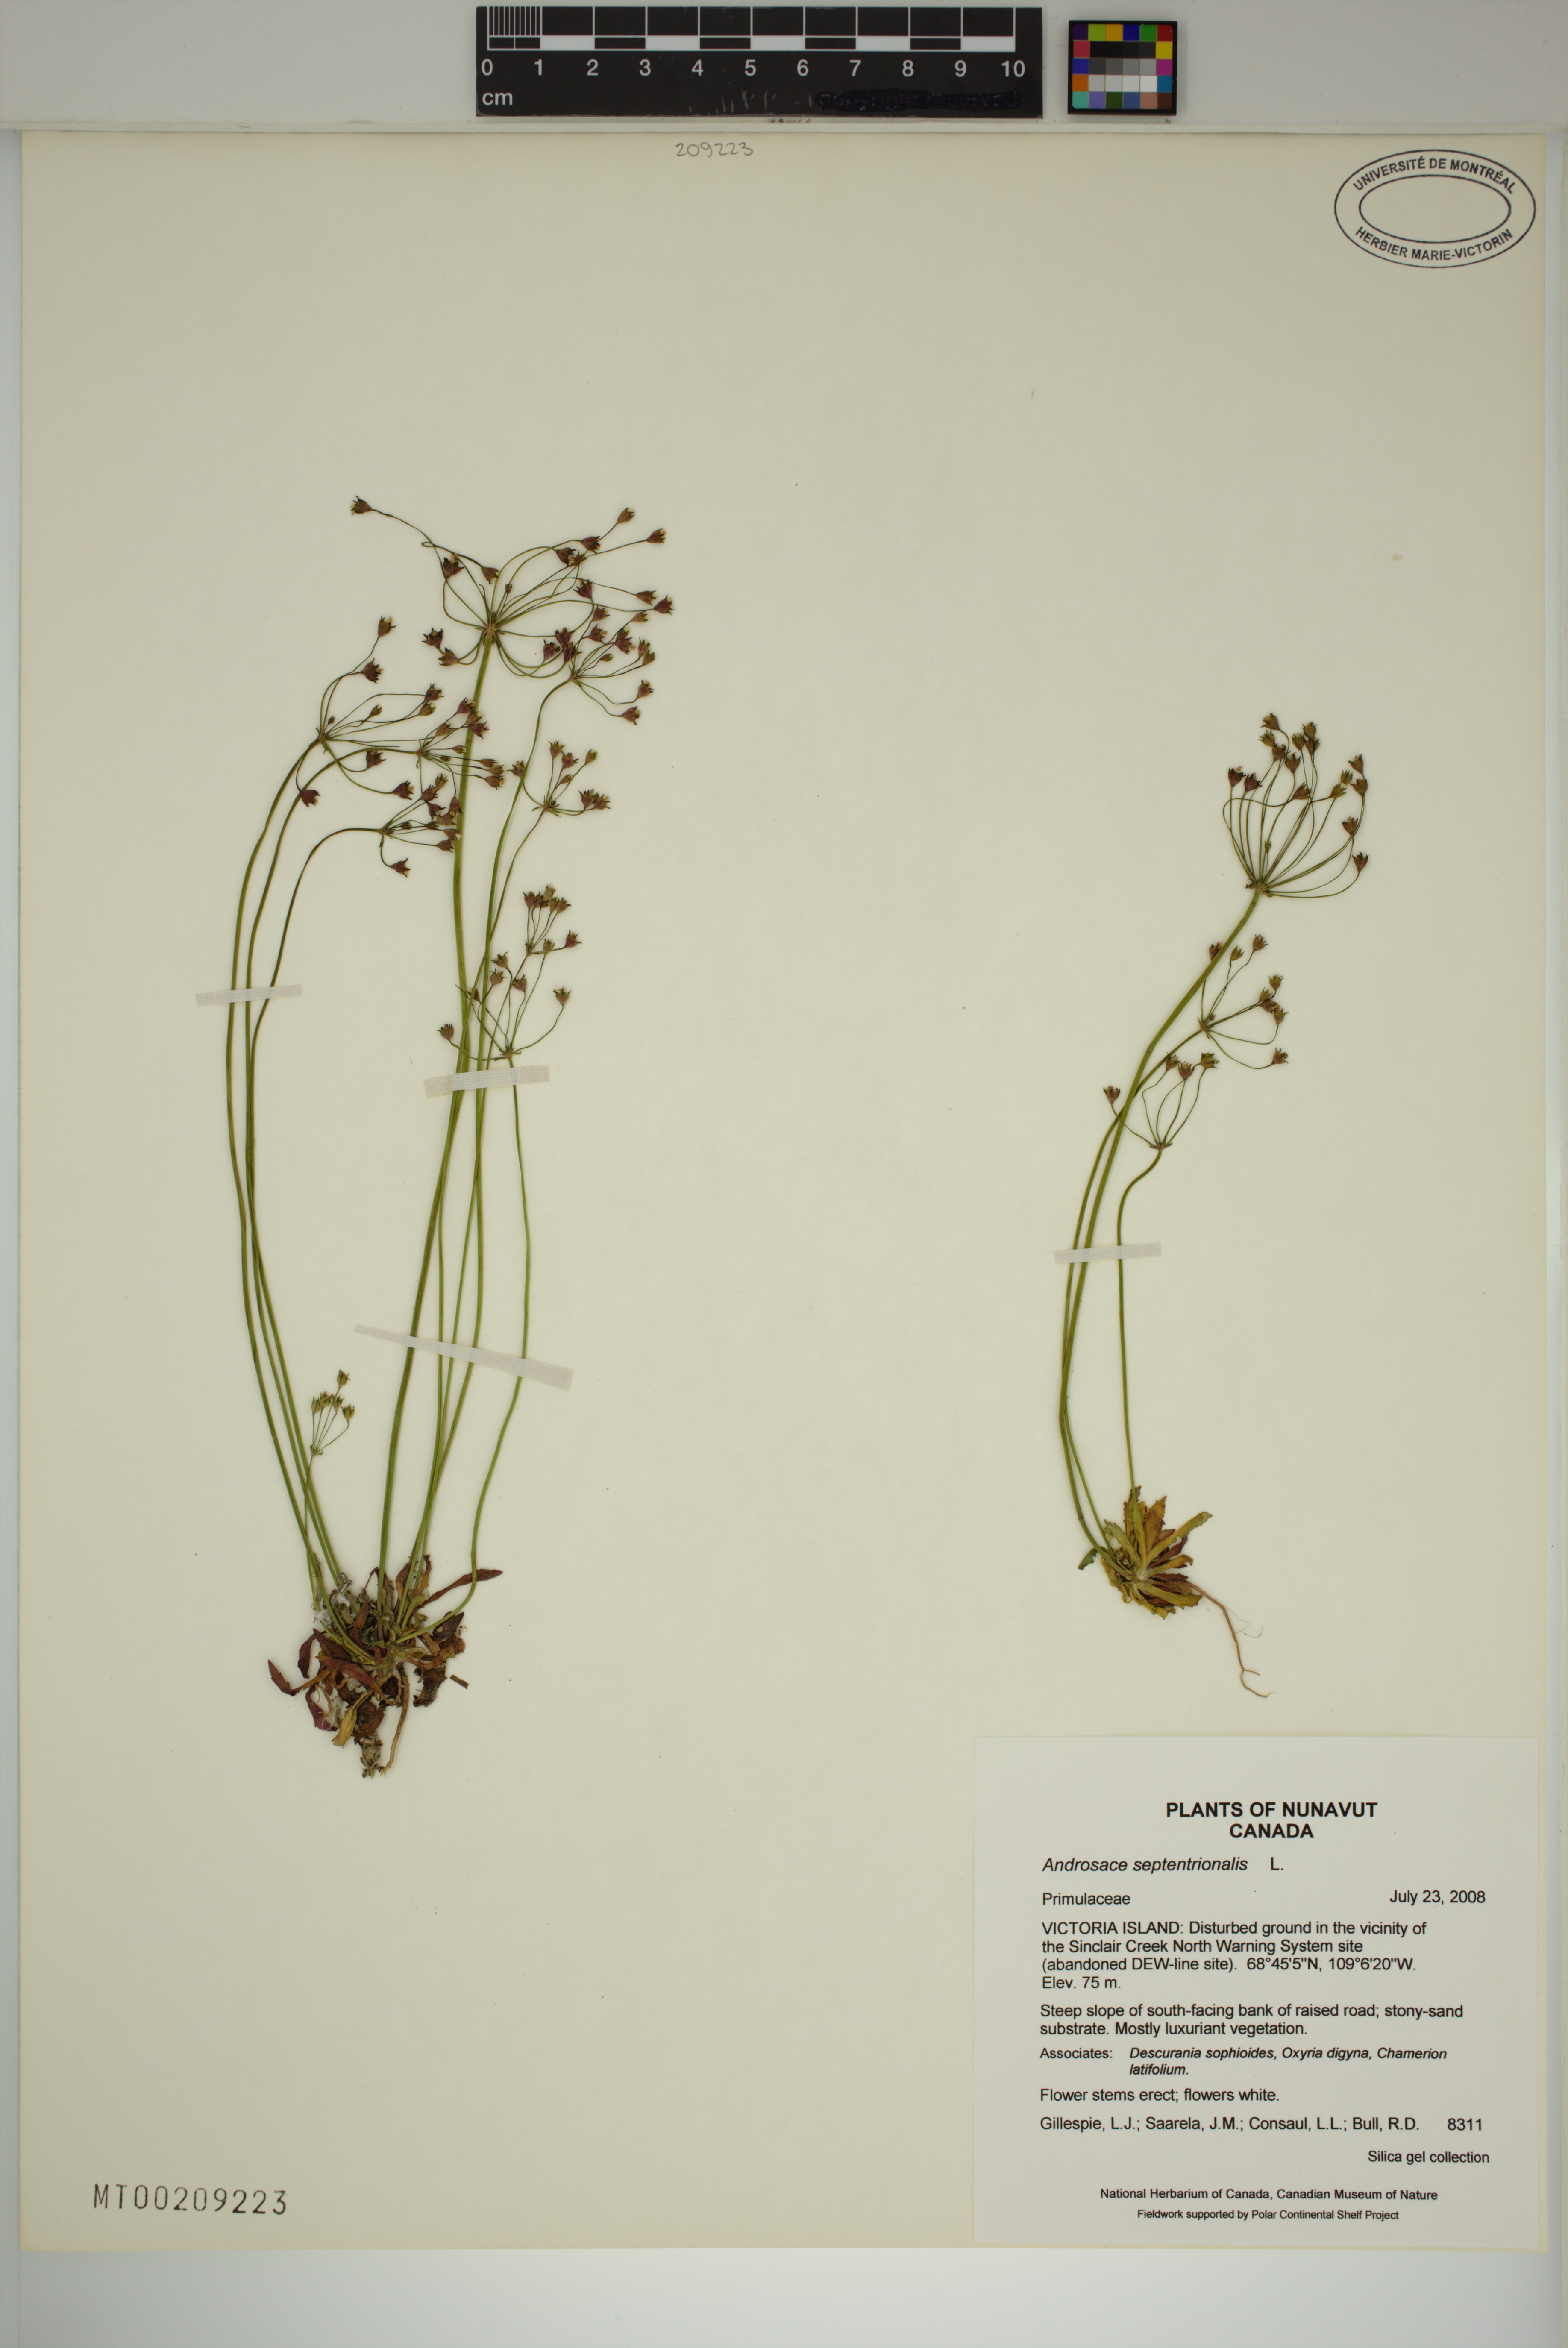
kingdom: Plantae
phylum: Tracheophyta
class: Magnoliopsida
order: Ericales
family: Primulaceae
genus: Androsace
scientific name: Androsace septentrionalis
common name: Hairy northern fairy-candelabra
